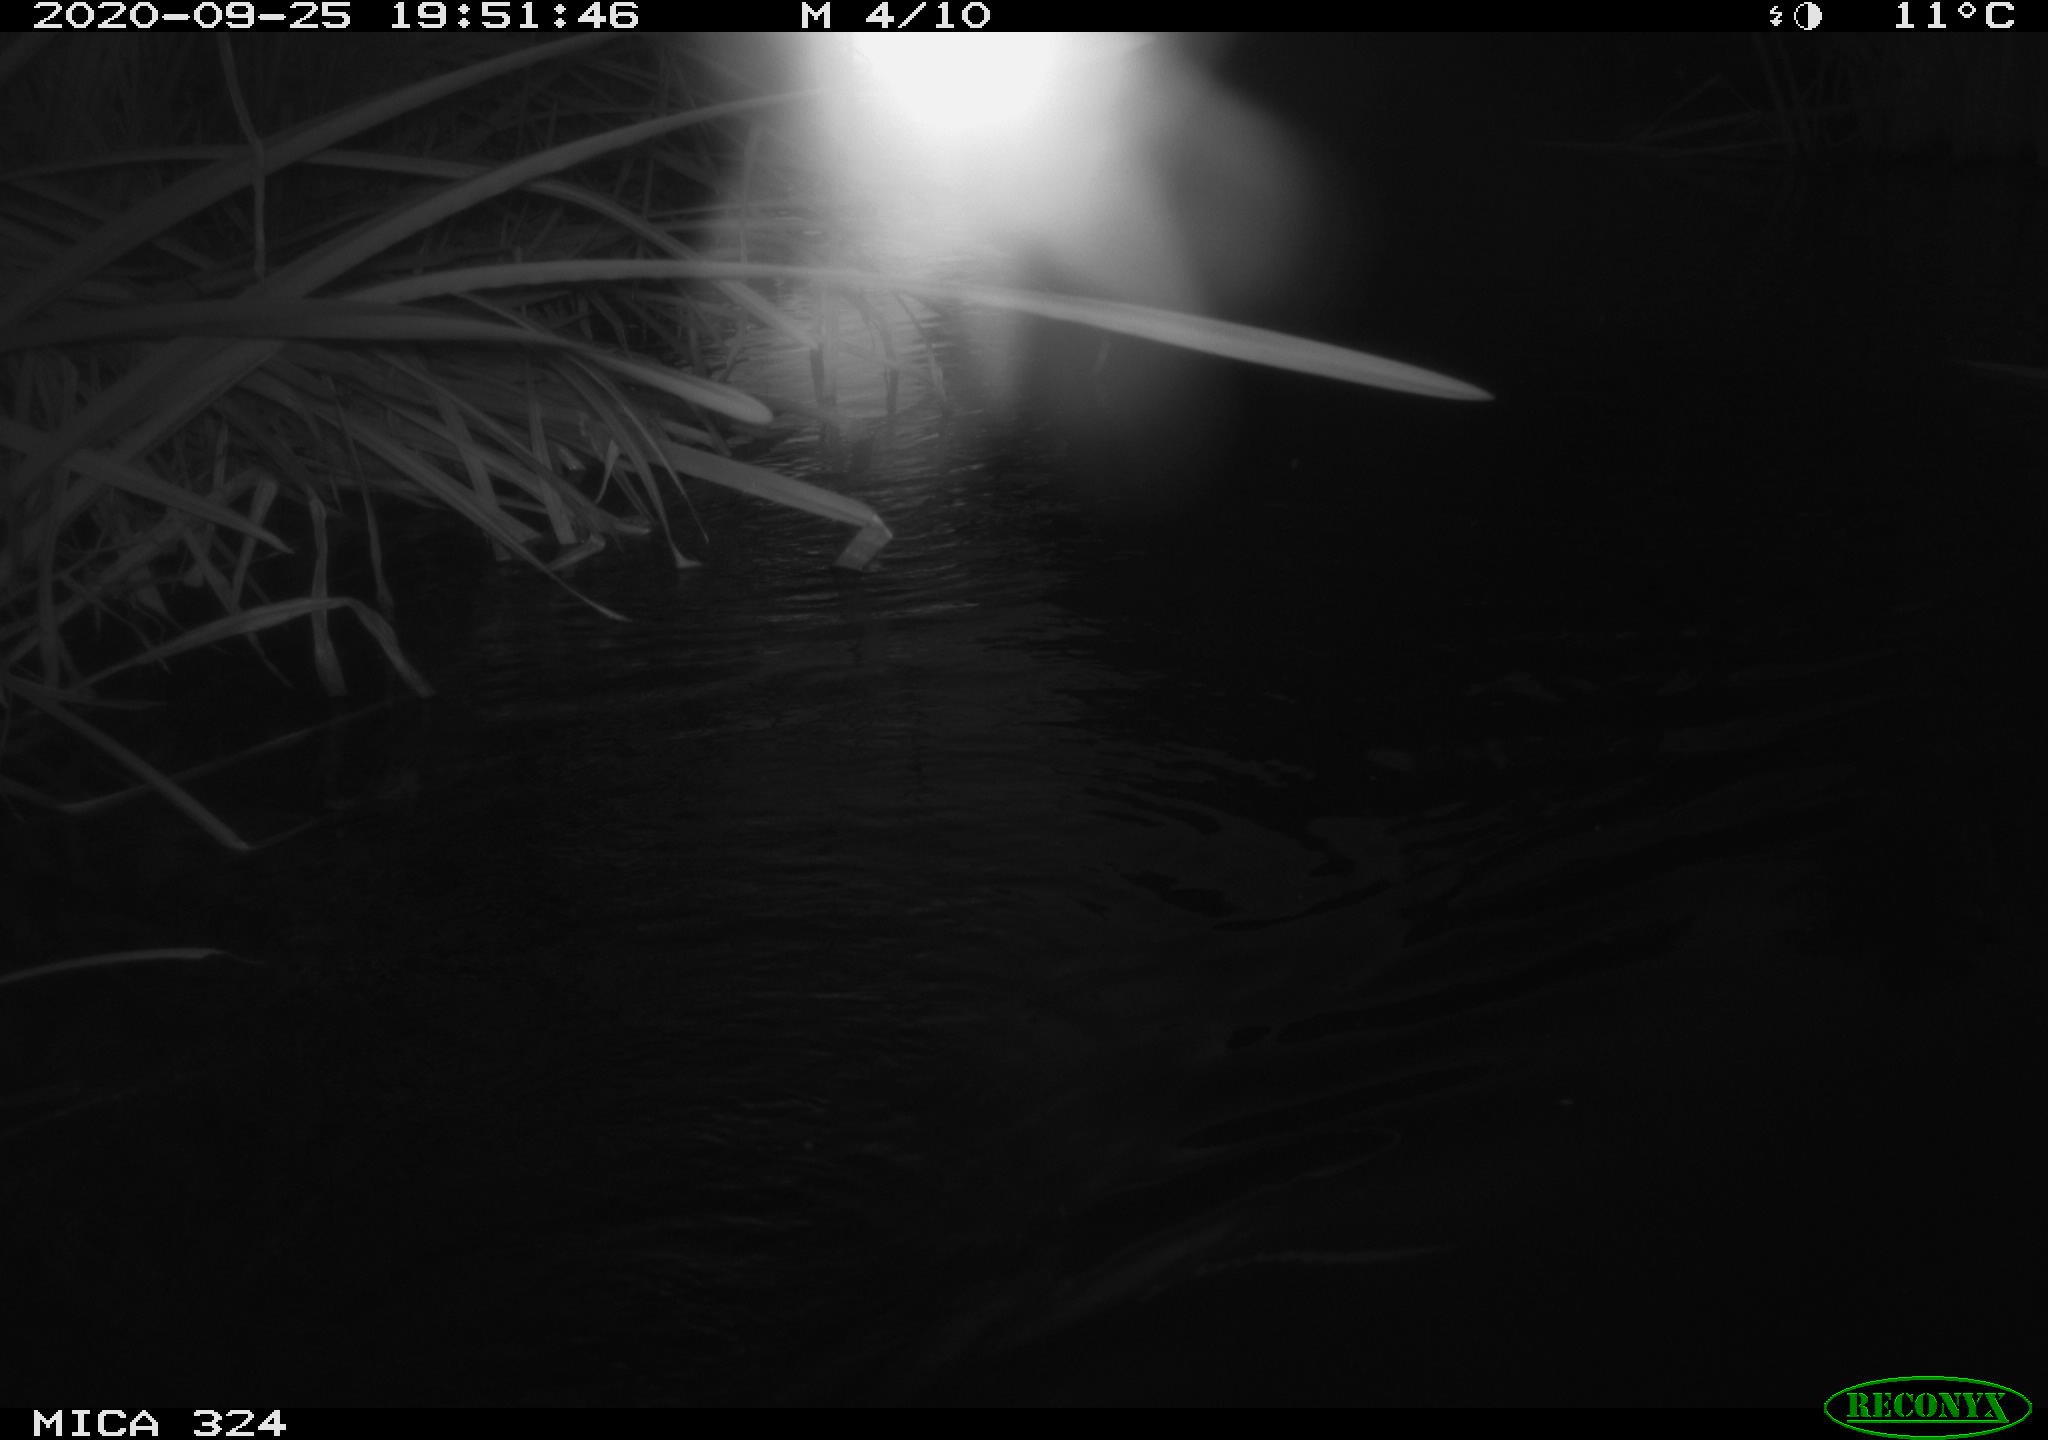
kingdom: Animalia
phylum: Chordata
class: Mammalia
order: Rodentia
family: Cricetidae
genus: Ondatra
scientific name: Ondatra zibethicus
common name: Muskrat
